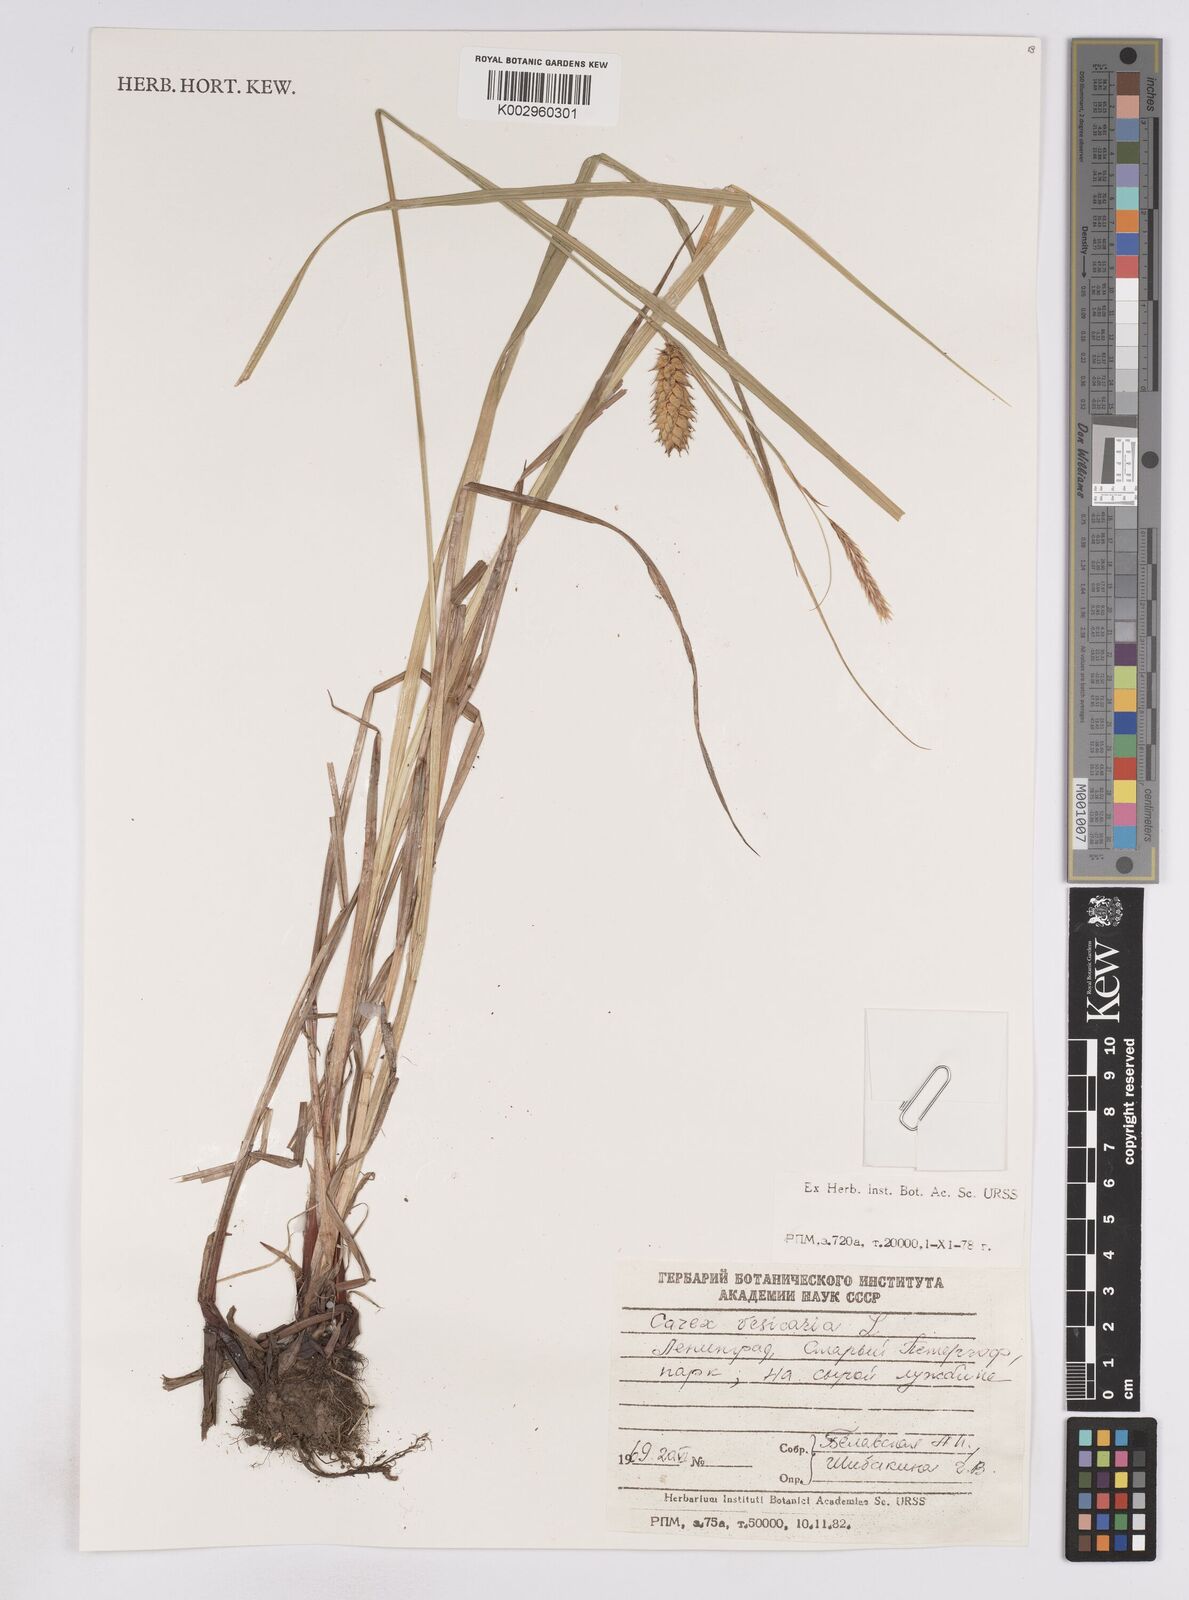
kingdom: Plantae
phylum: Tracheophyta
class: Liliopsida
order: Poales
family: Cyperaceae
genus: Carex
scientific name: Carex vesicaria
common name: Bladder-sedge
